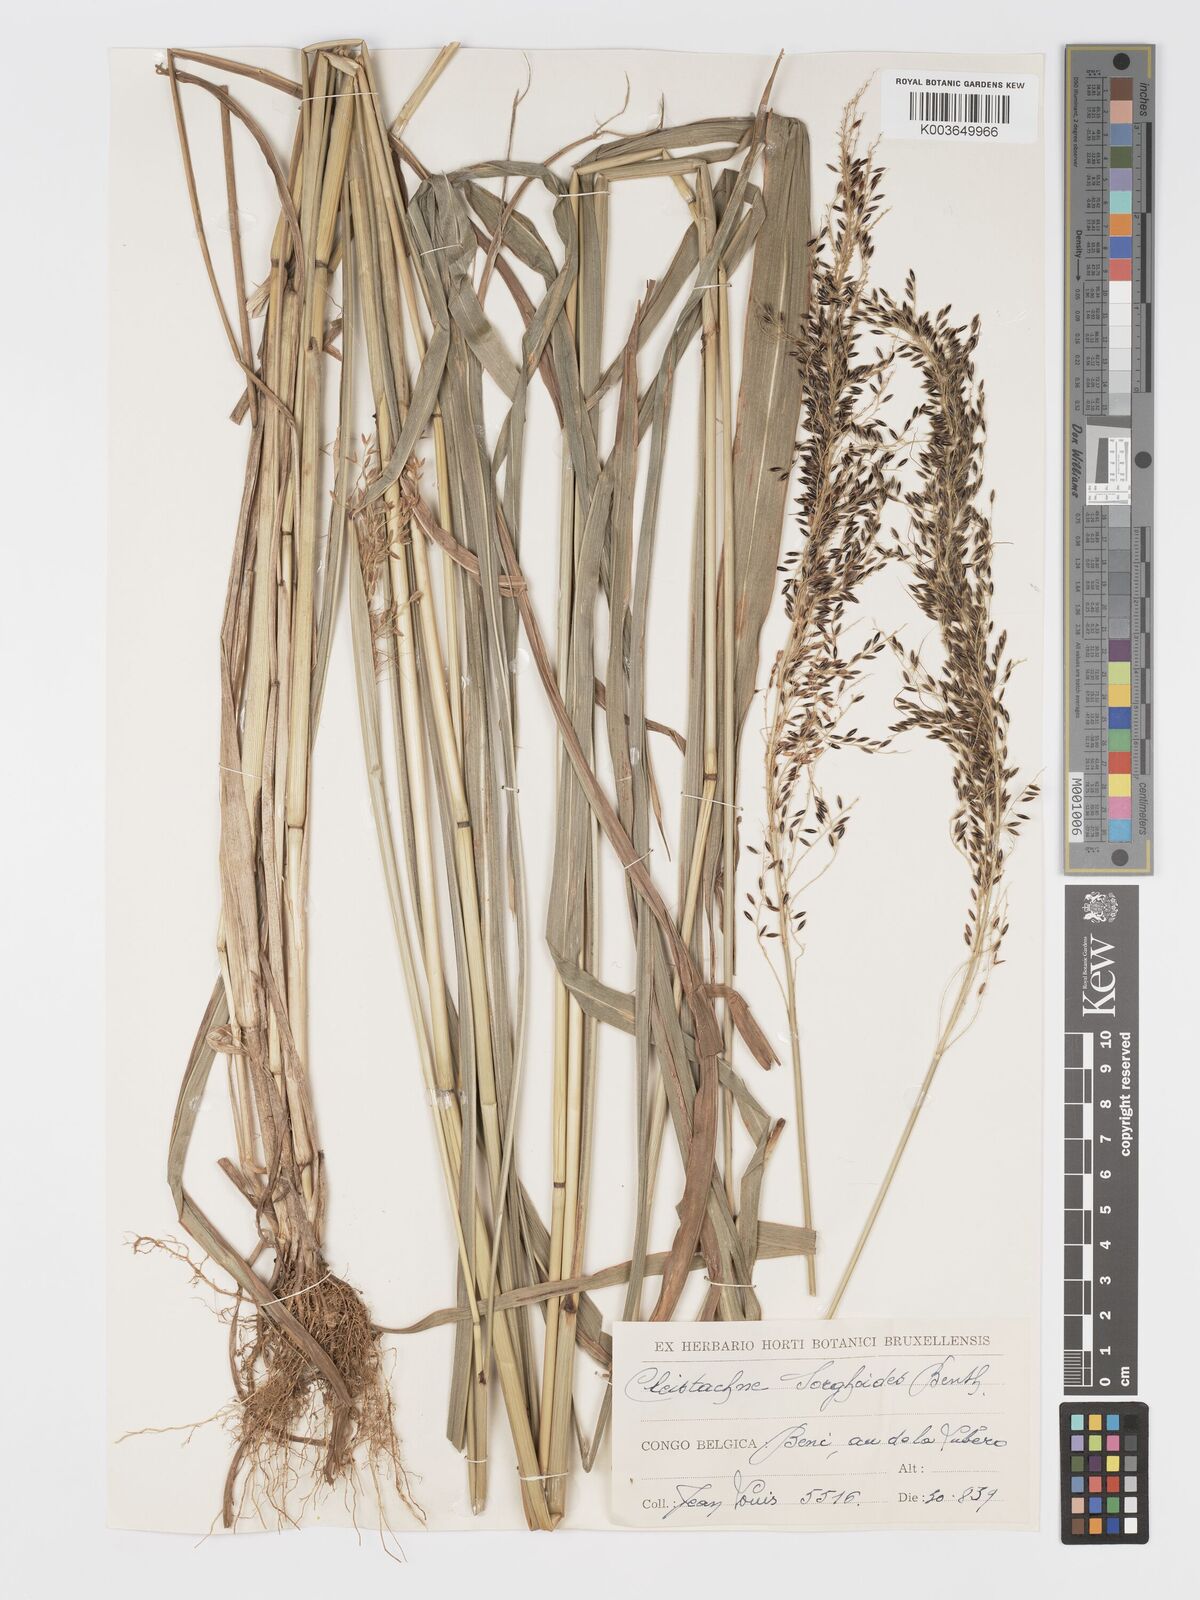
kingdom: Plantae
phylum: Tracheophyta
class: Liliopsida
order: Poales
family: Poaceae
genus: Cleistachne
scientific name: Cleistachne sorghoides
